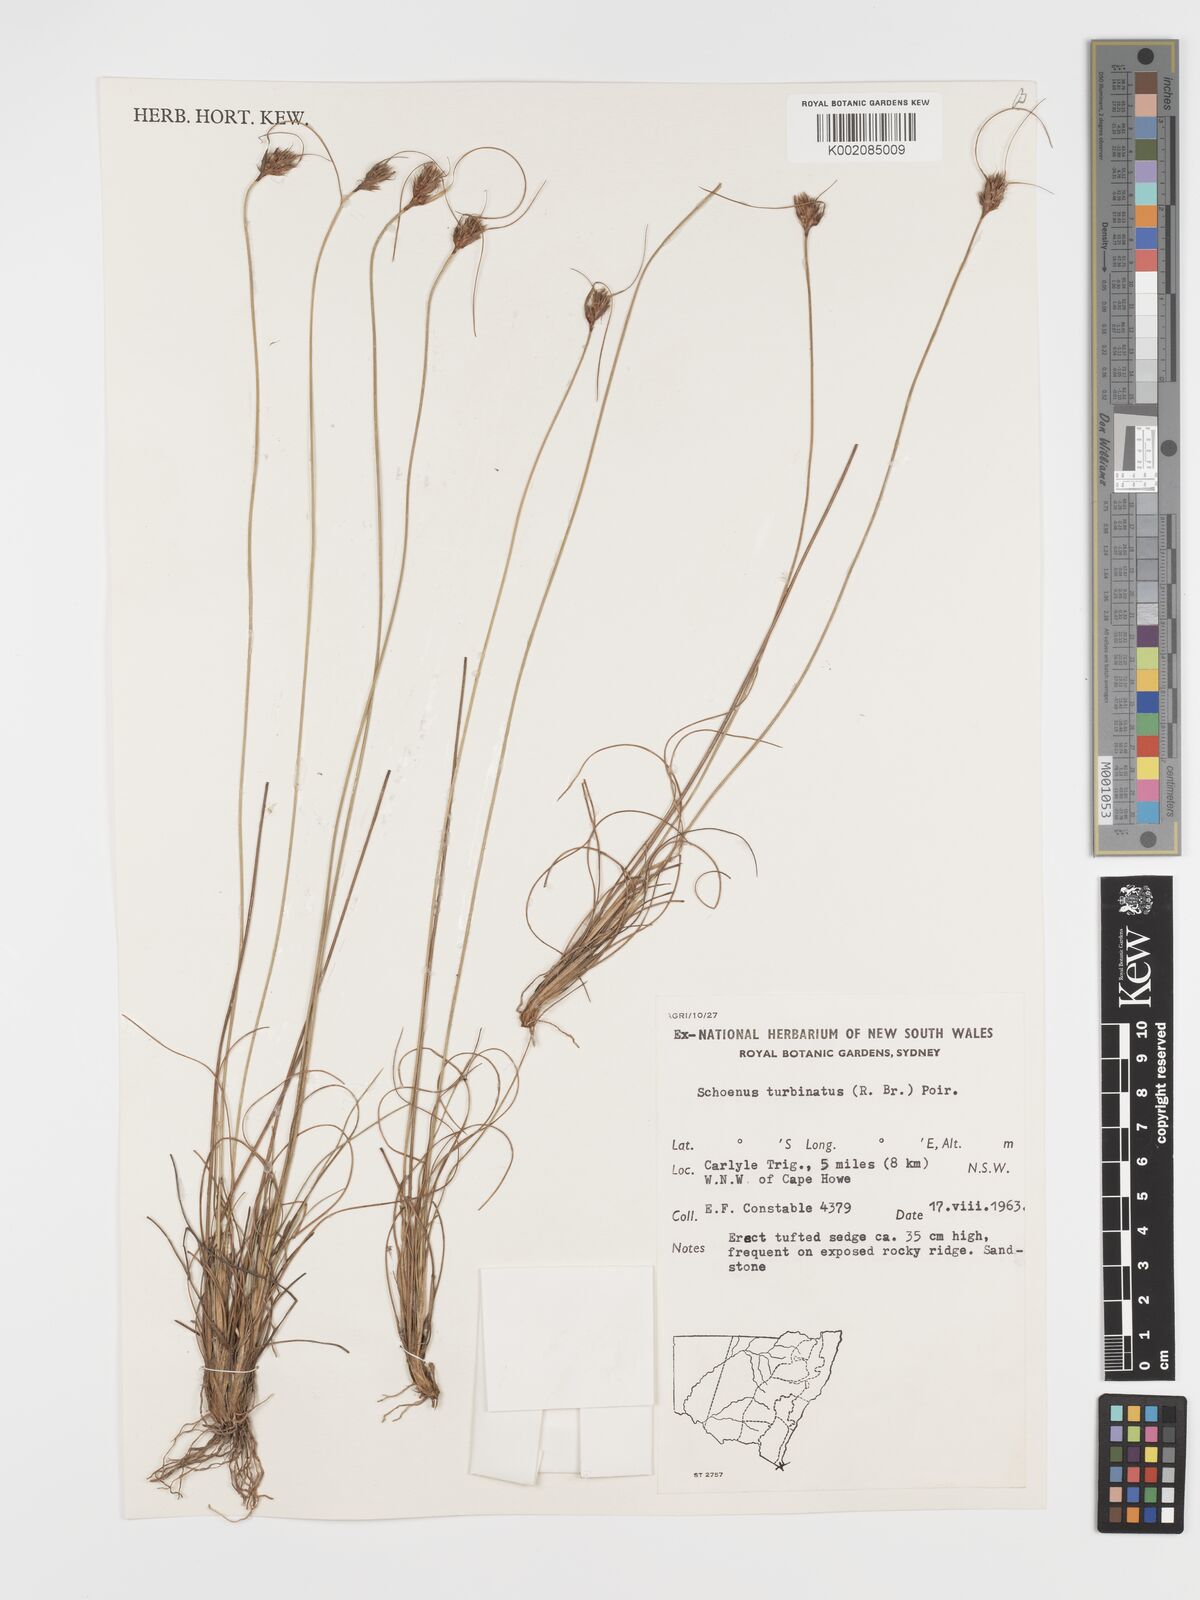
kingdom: Plantae
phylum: Tracheophyta
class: Liliopsida
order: Poales
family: Cyperaceae
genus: Schoenus
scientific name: Schoenus turbinatus
